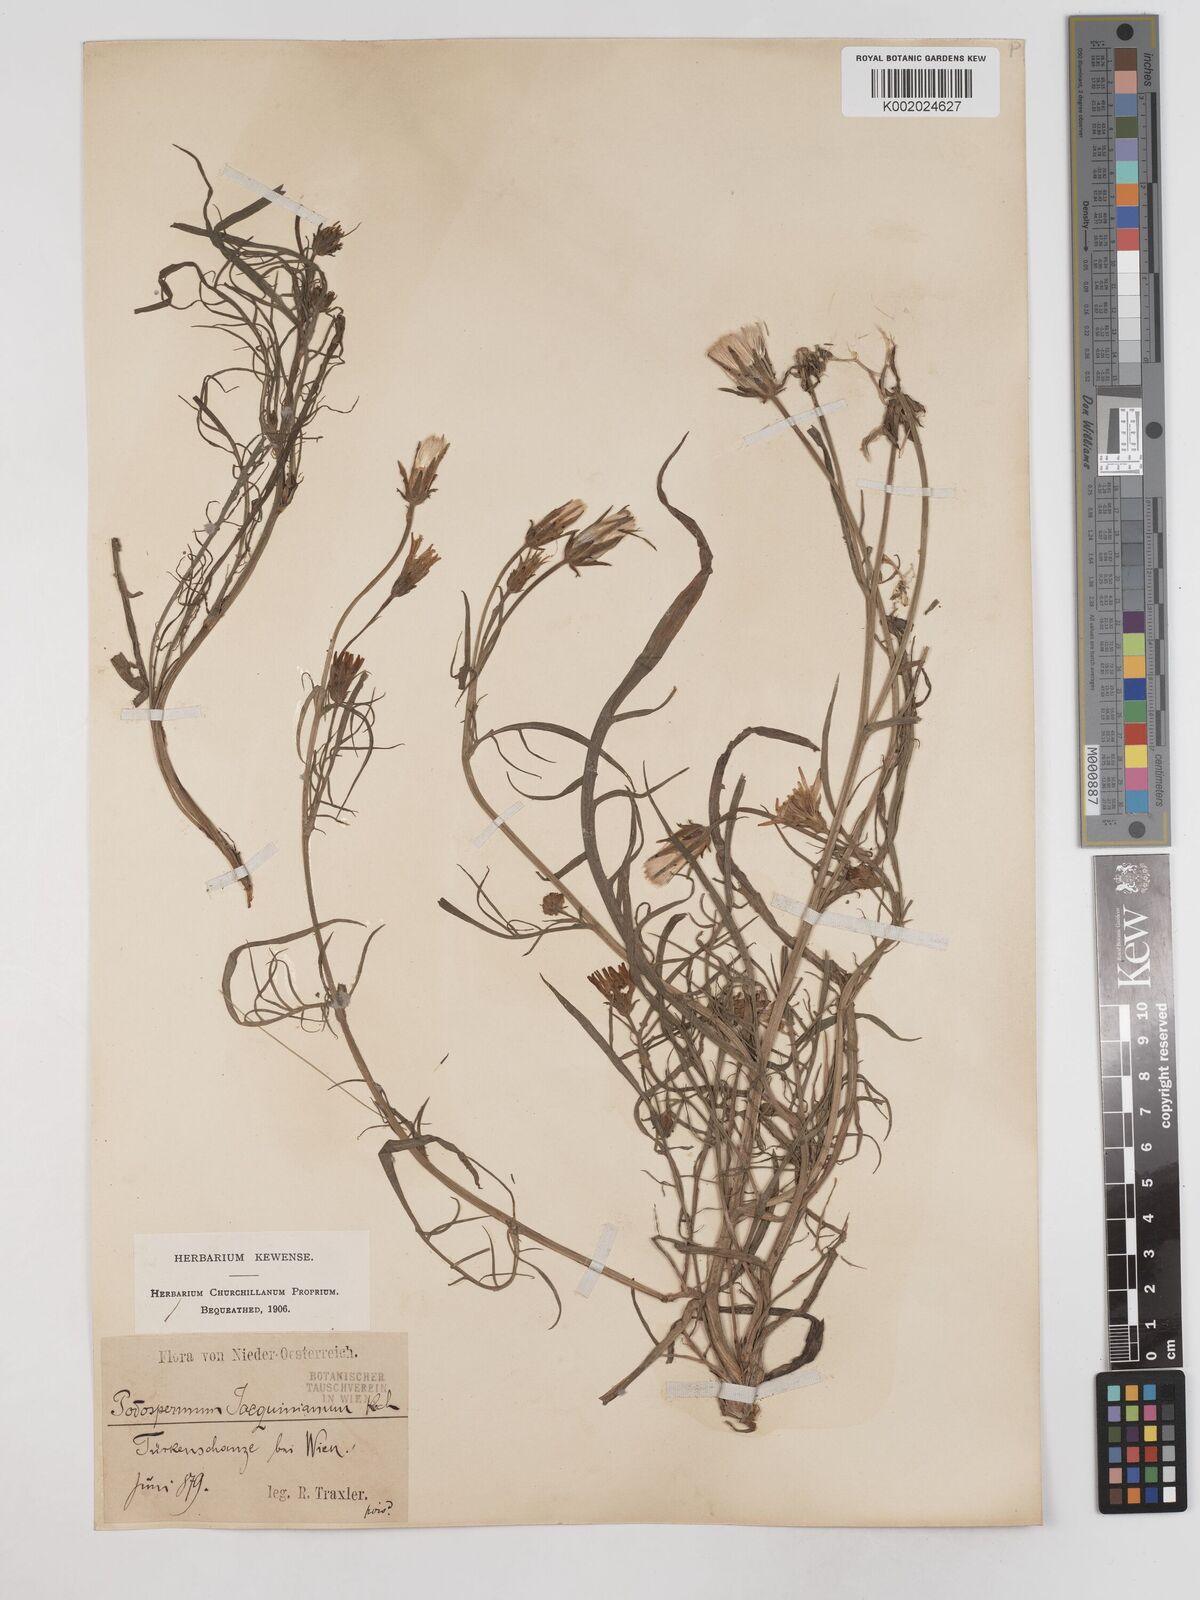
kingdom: Plantae
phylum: Tracheophyta
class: Magnoliopsida
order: Asterales
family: Asteraceae
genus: Scorzonera
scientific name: Scorzonera cana
